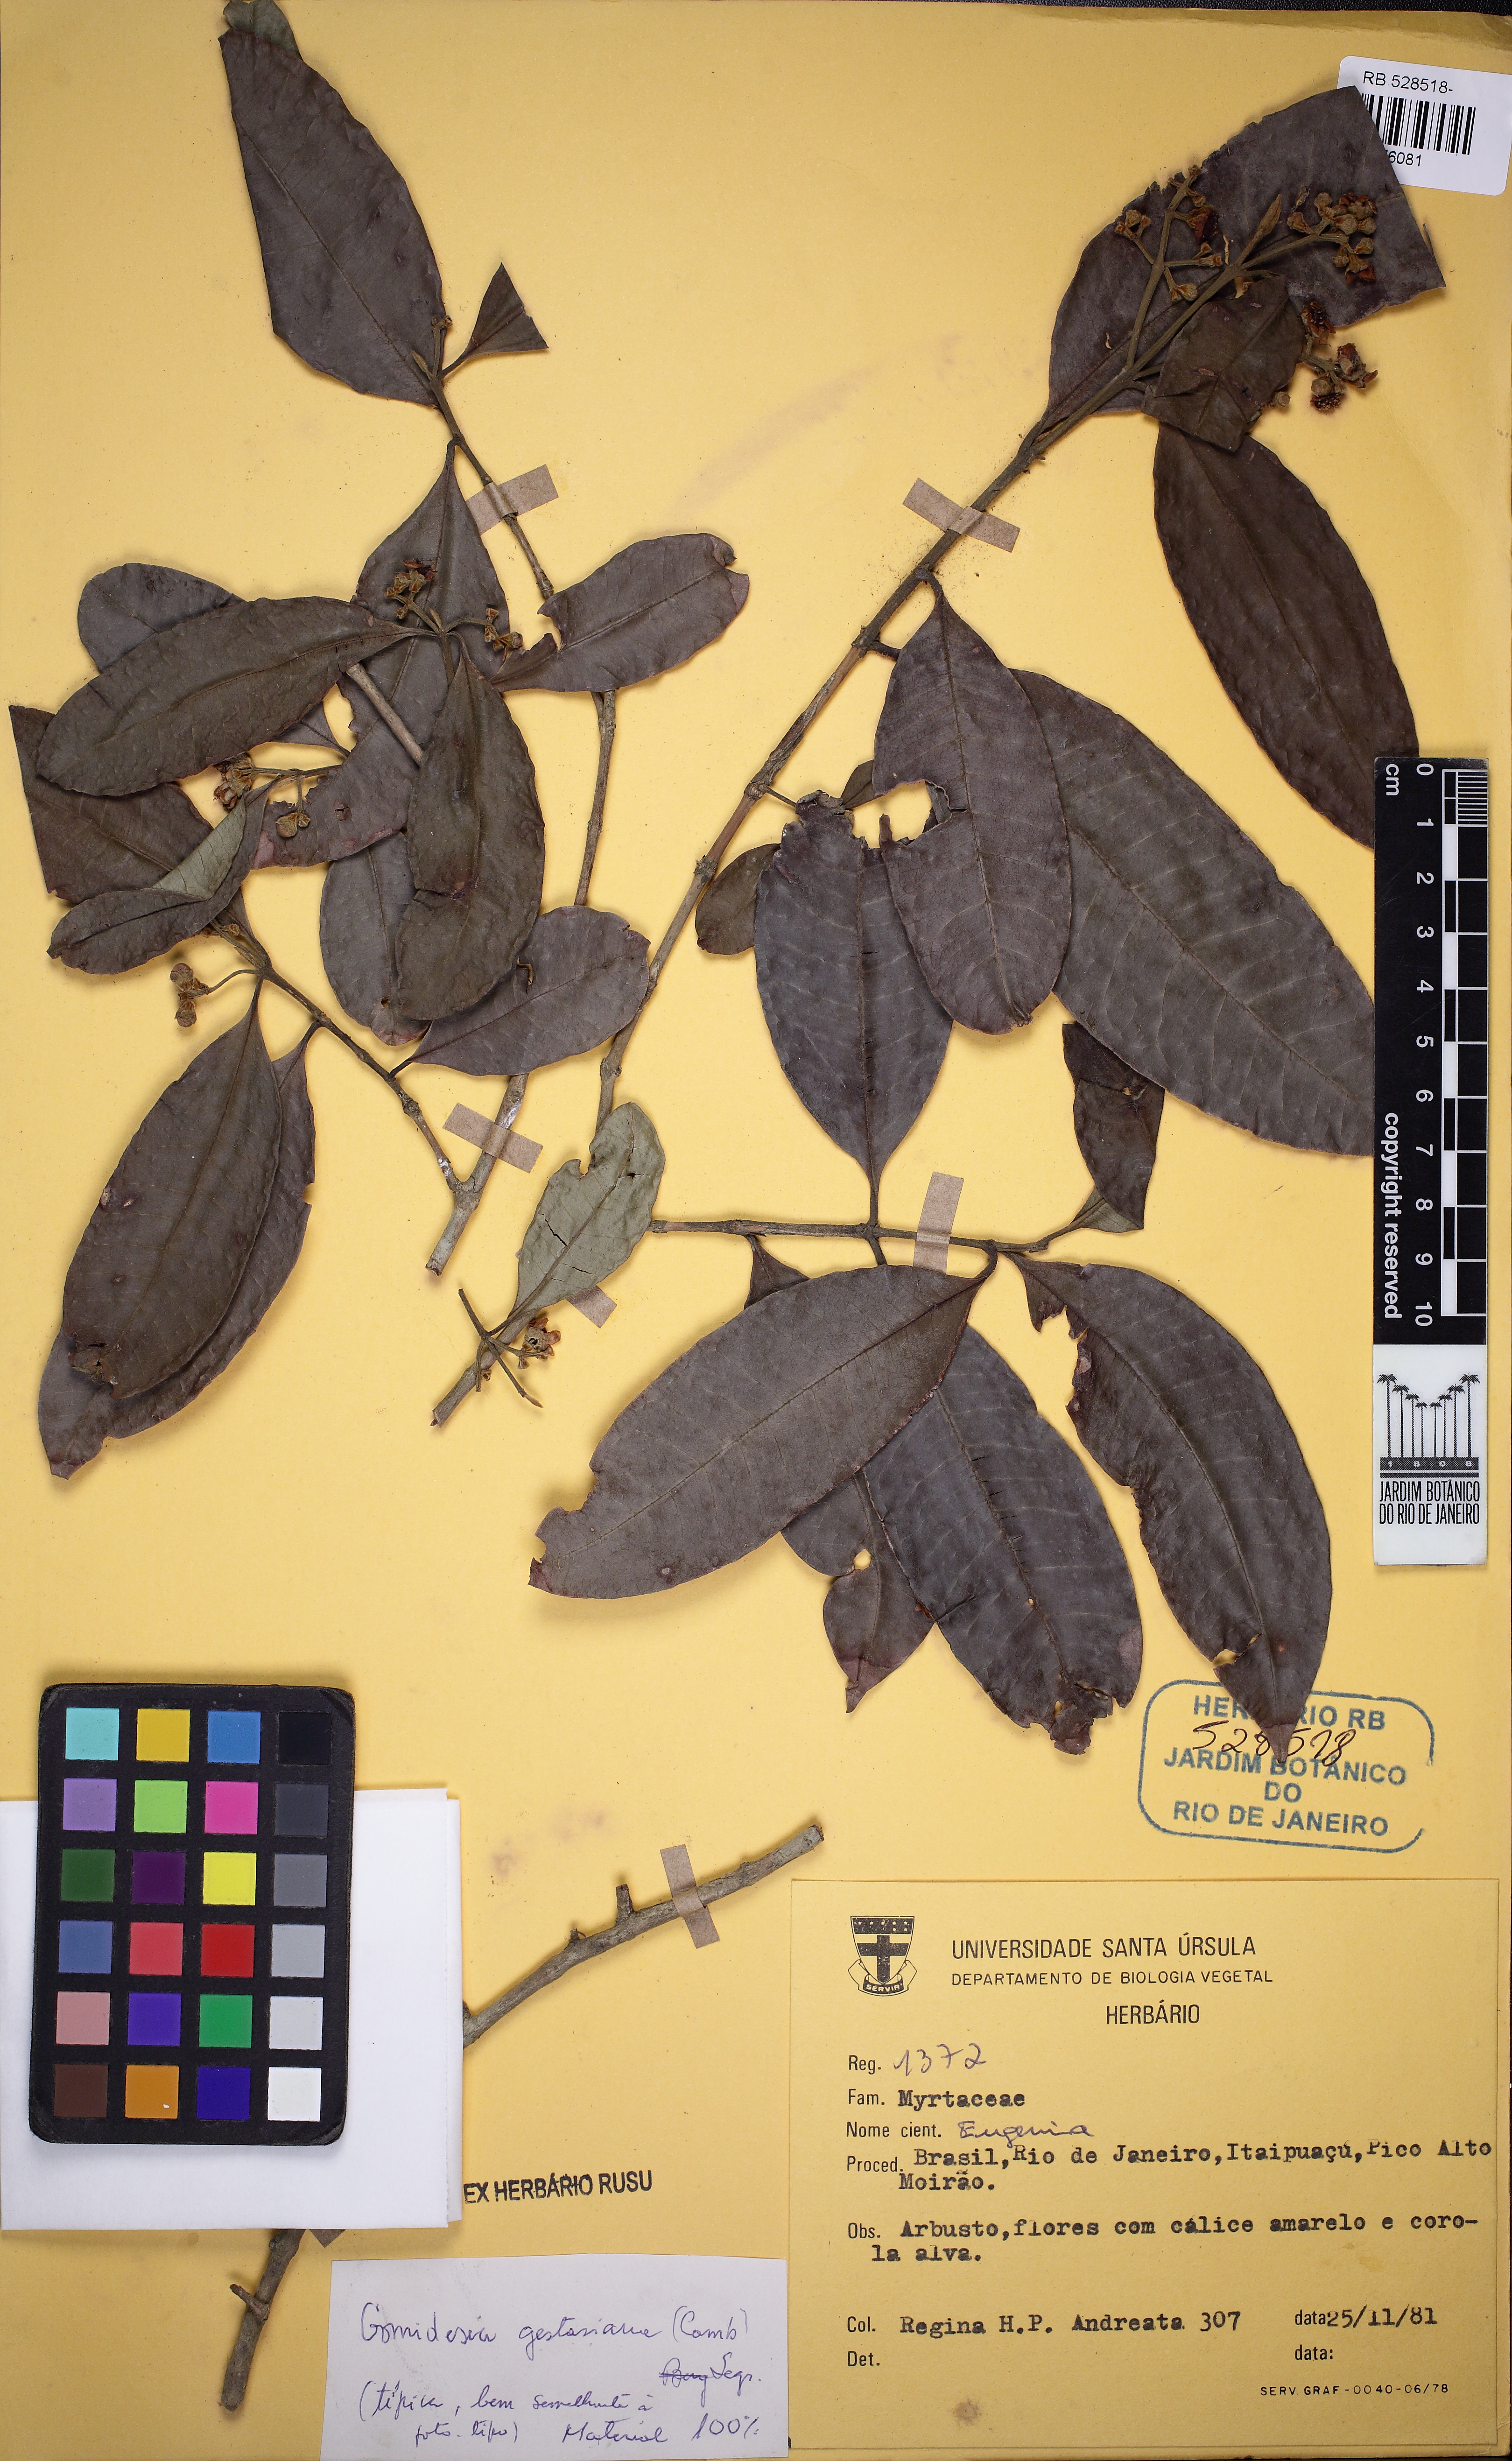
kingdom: Plantae
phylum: Tracheophyta
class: Magnoliopsida
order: Myrtales
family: Myrtaceae
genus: Myrcia
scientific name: Myrcia dolichopetala
